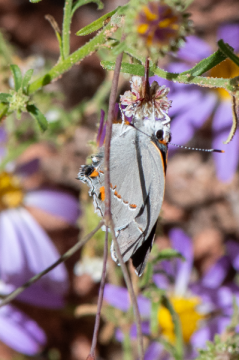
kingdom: Animalia
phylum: Arthropoda
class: Insecta
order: Lepidoptera
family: Lycaenidae
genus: Strymon
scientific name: Strymon melinus
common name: Gray Hairstreak
